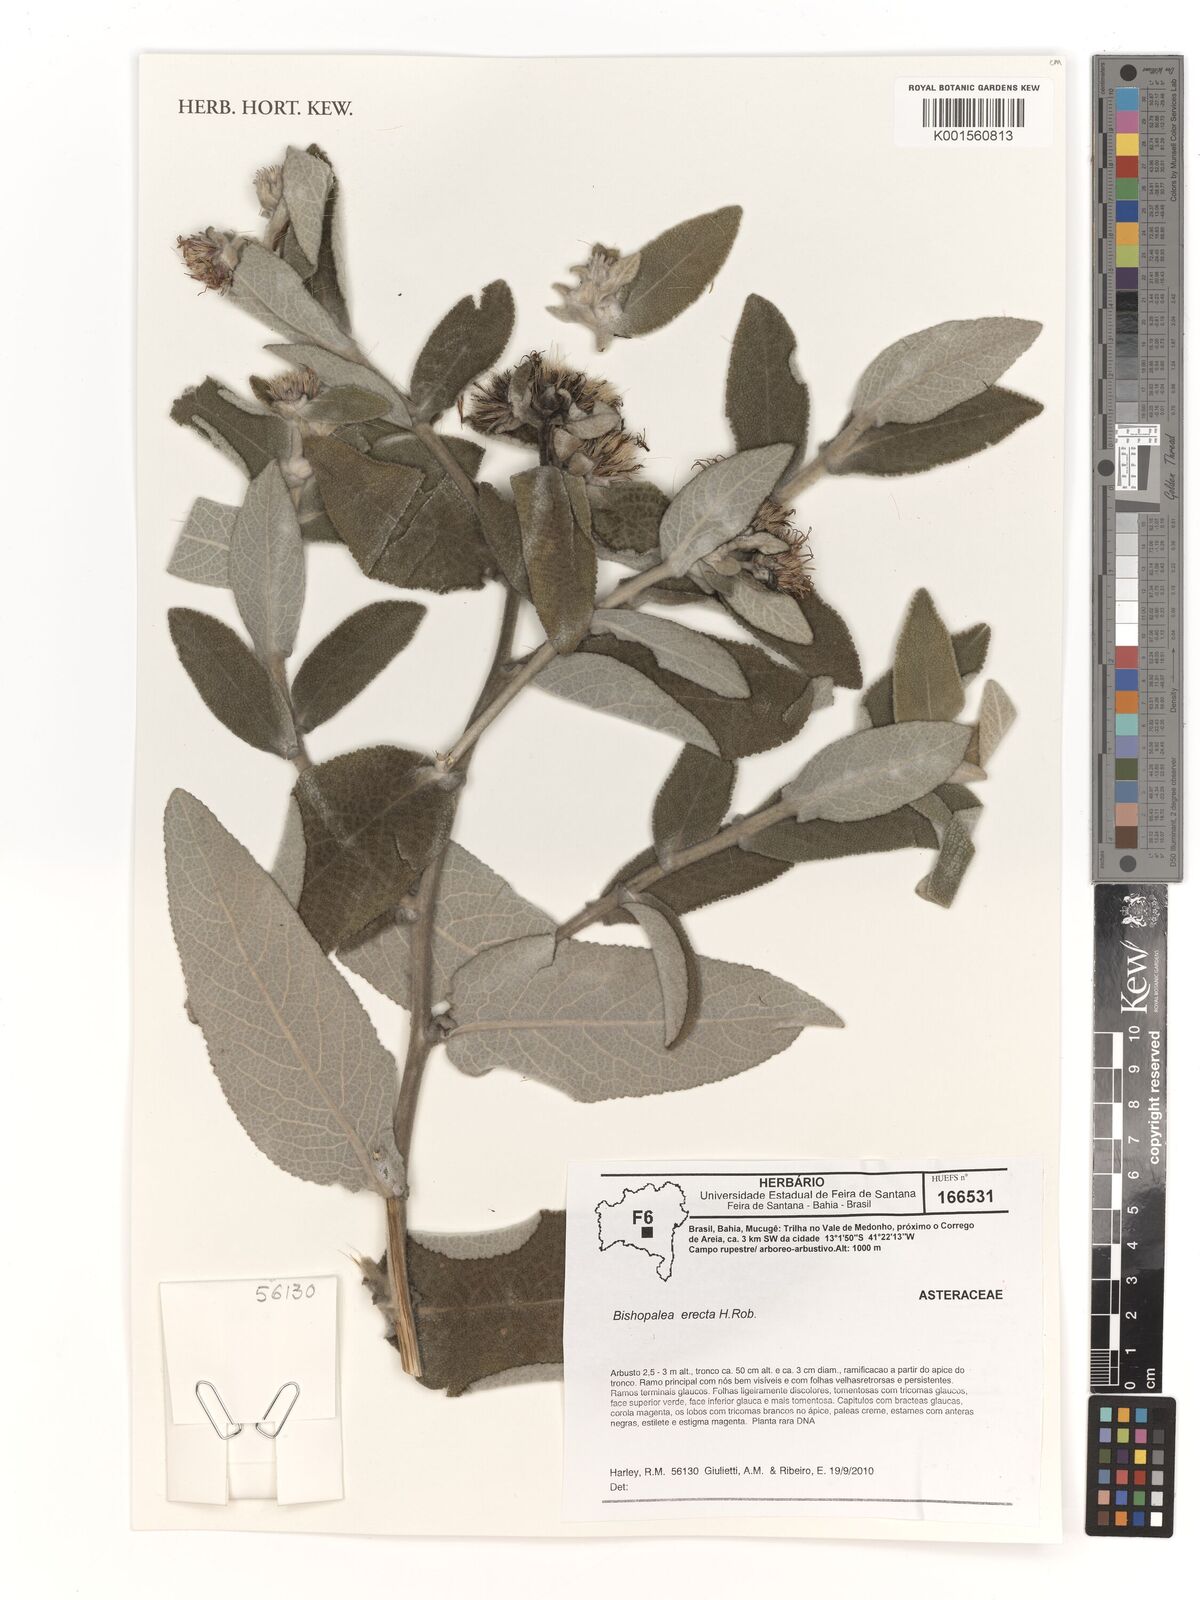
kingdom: Plantae
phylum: Tracheophyta
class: Magnoliopsida
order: Asterales
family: Asteraceae
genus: Heterocoma
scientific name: Heterocoma erecta
